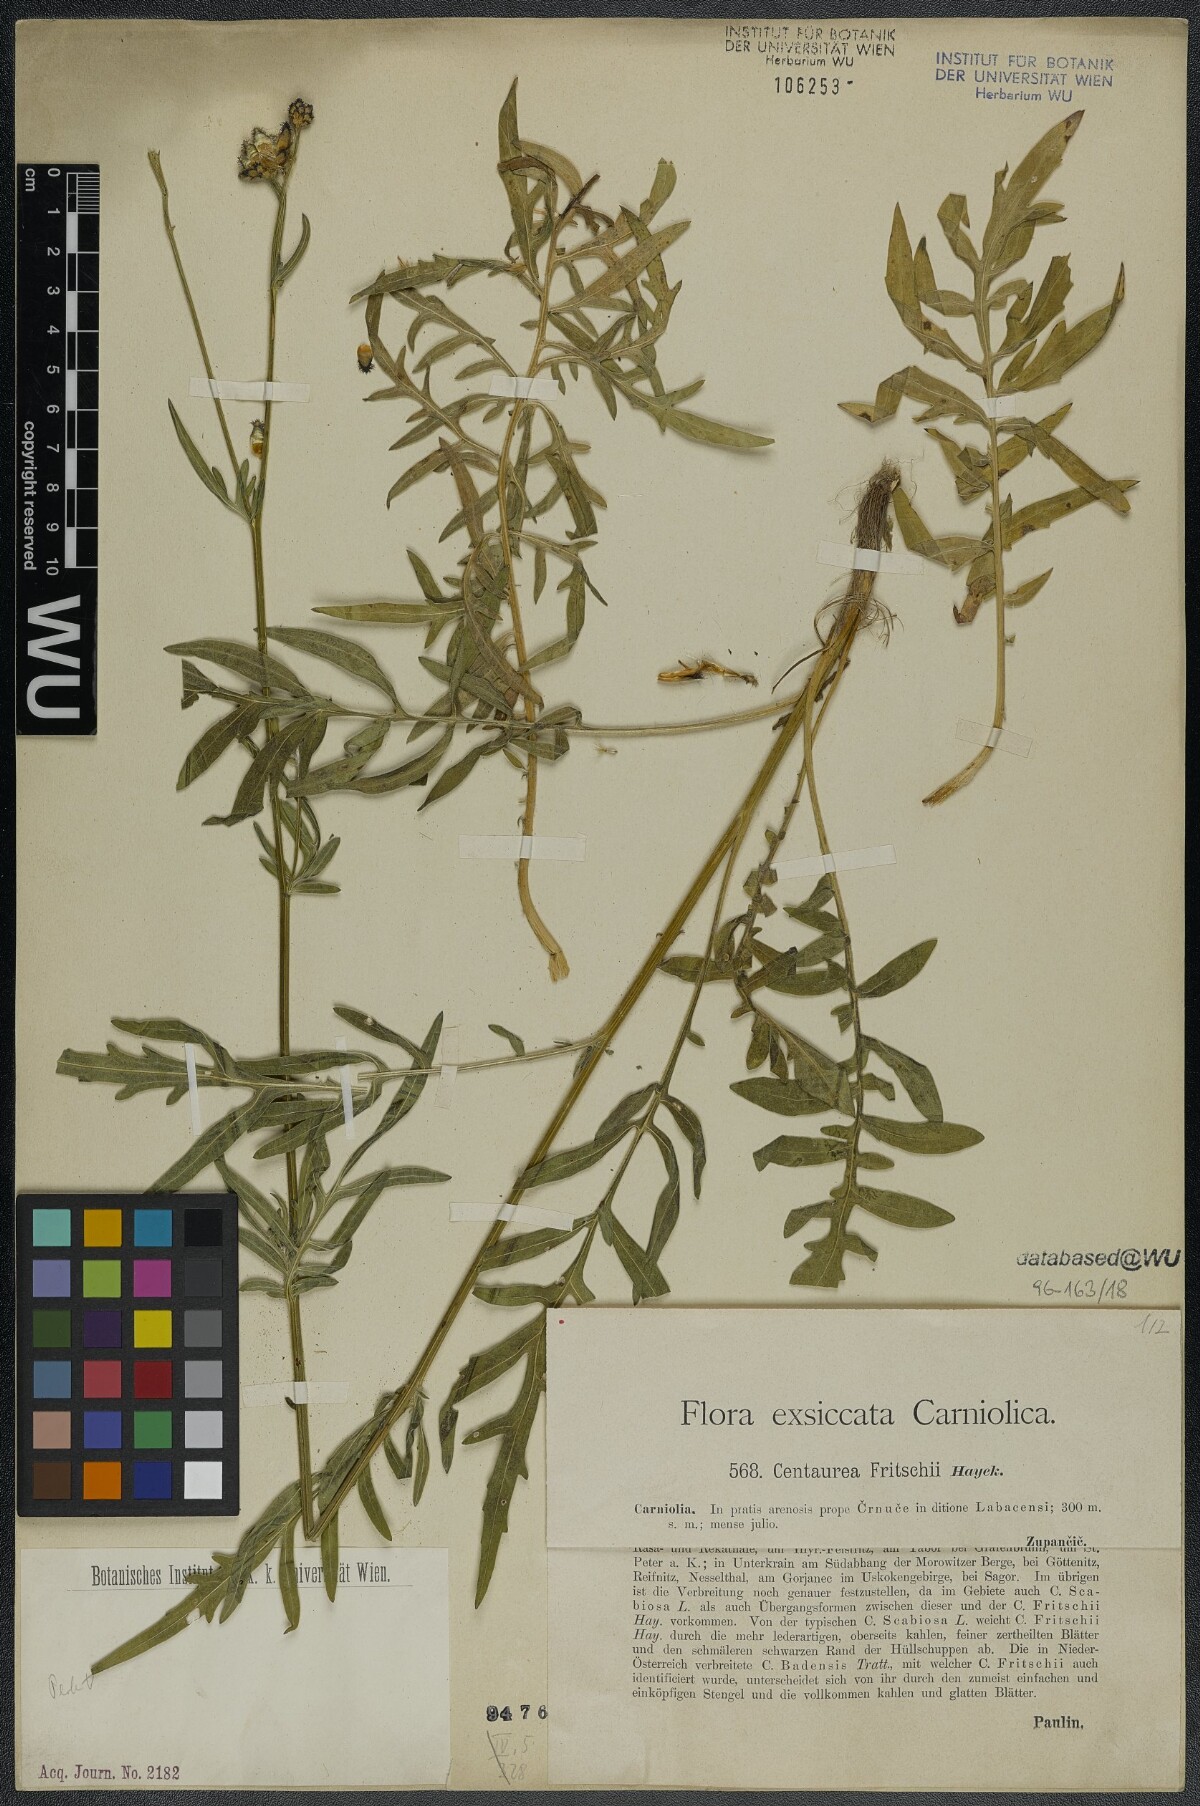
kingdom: Plantae
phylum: Tracheophyta
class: Magnoliopsida
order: Asterales
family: Asteraceae
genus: Centaurea
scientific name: Centaurea scabiosa
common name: Greater knapweed
